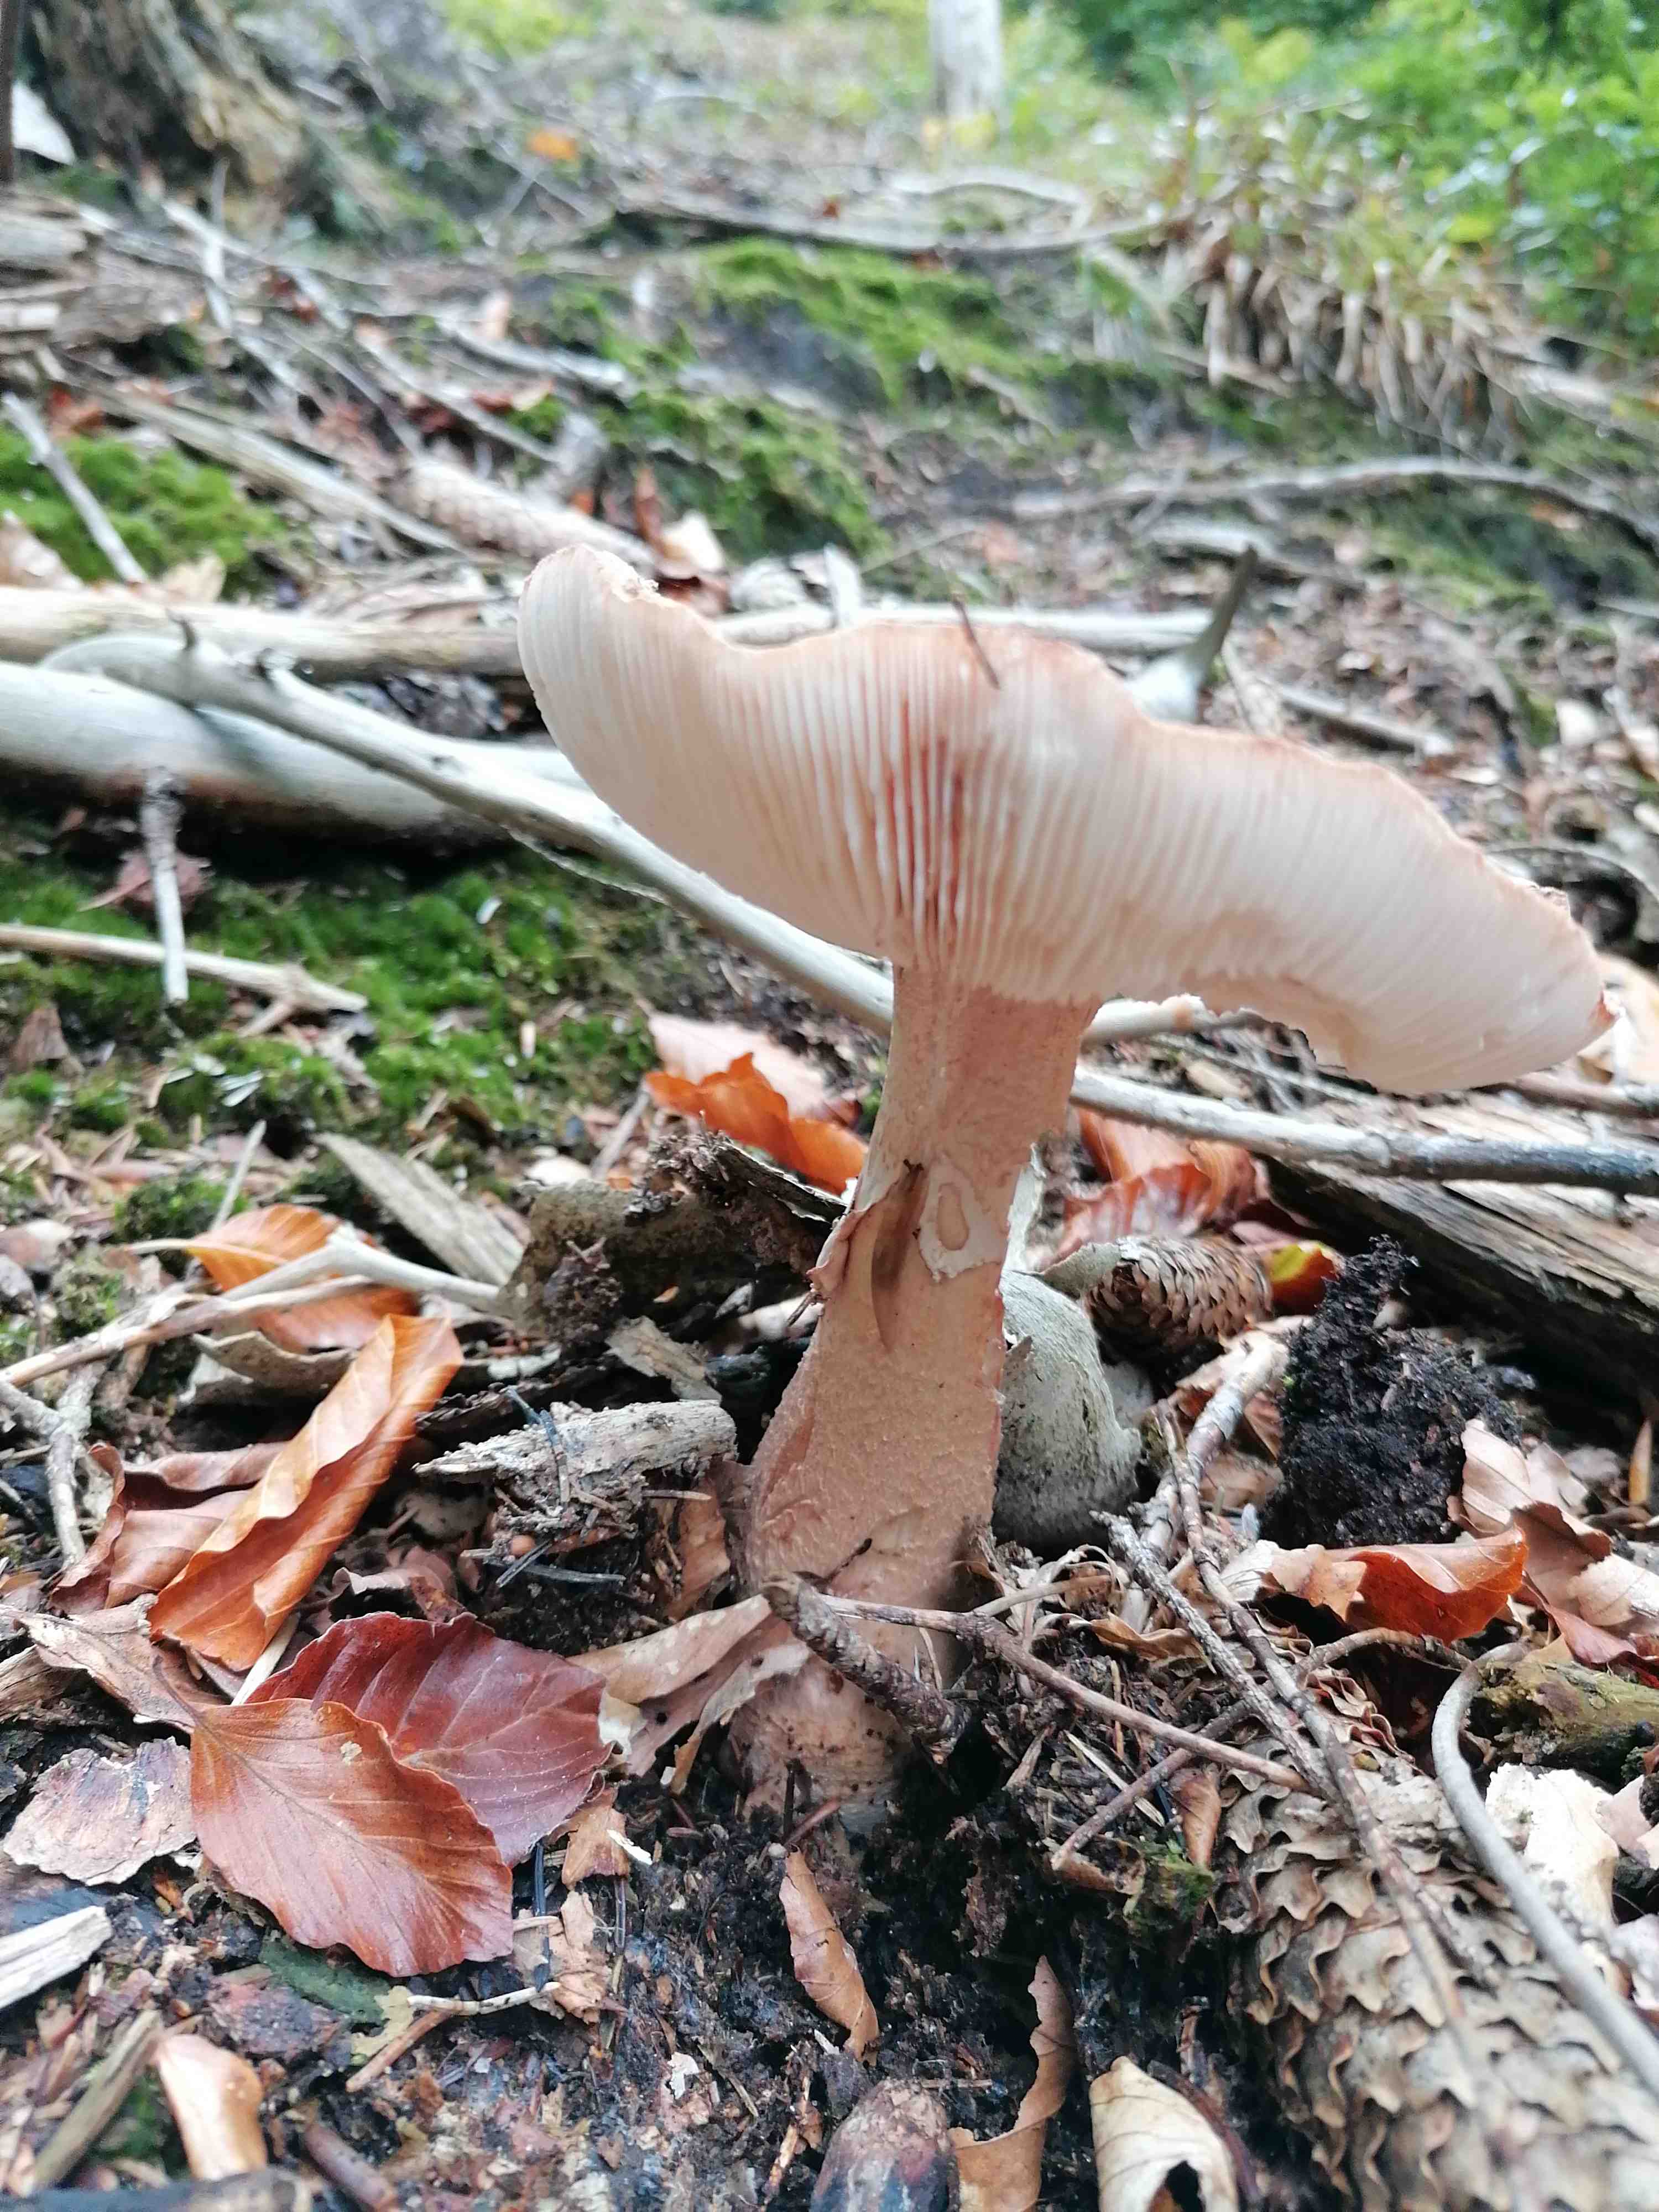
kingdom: Fungi
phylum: Basidiomycota
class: Agaricomycetes
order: Agaricales
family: Amanitaceae
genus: Amanita
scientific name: Amanita rubescens
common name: rødmende fluesvamp
